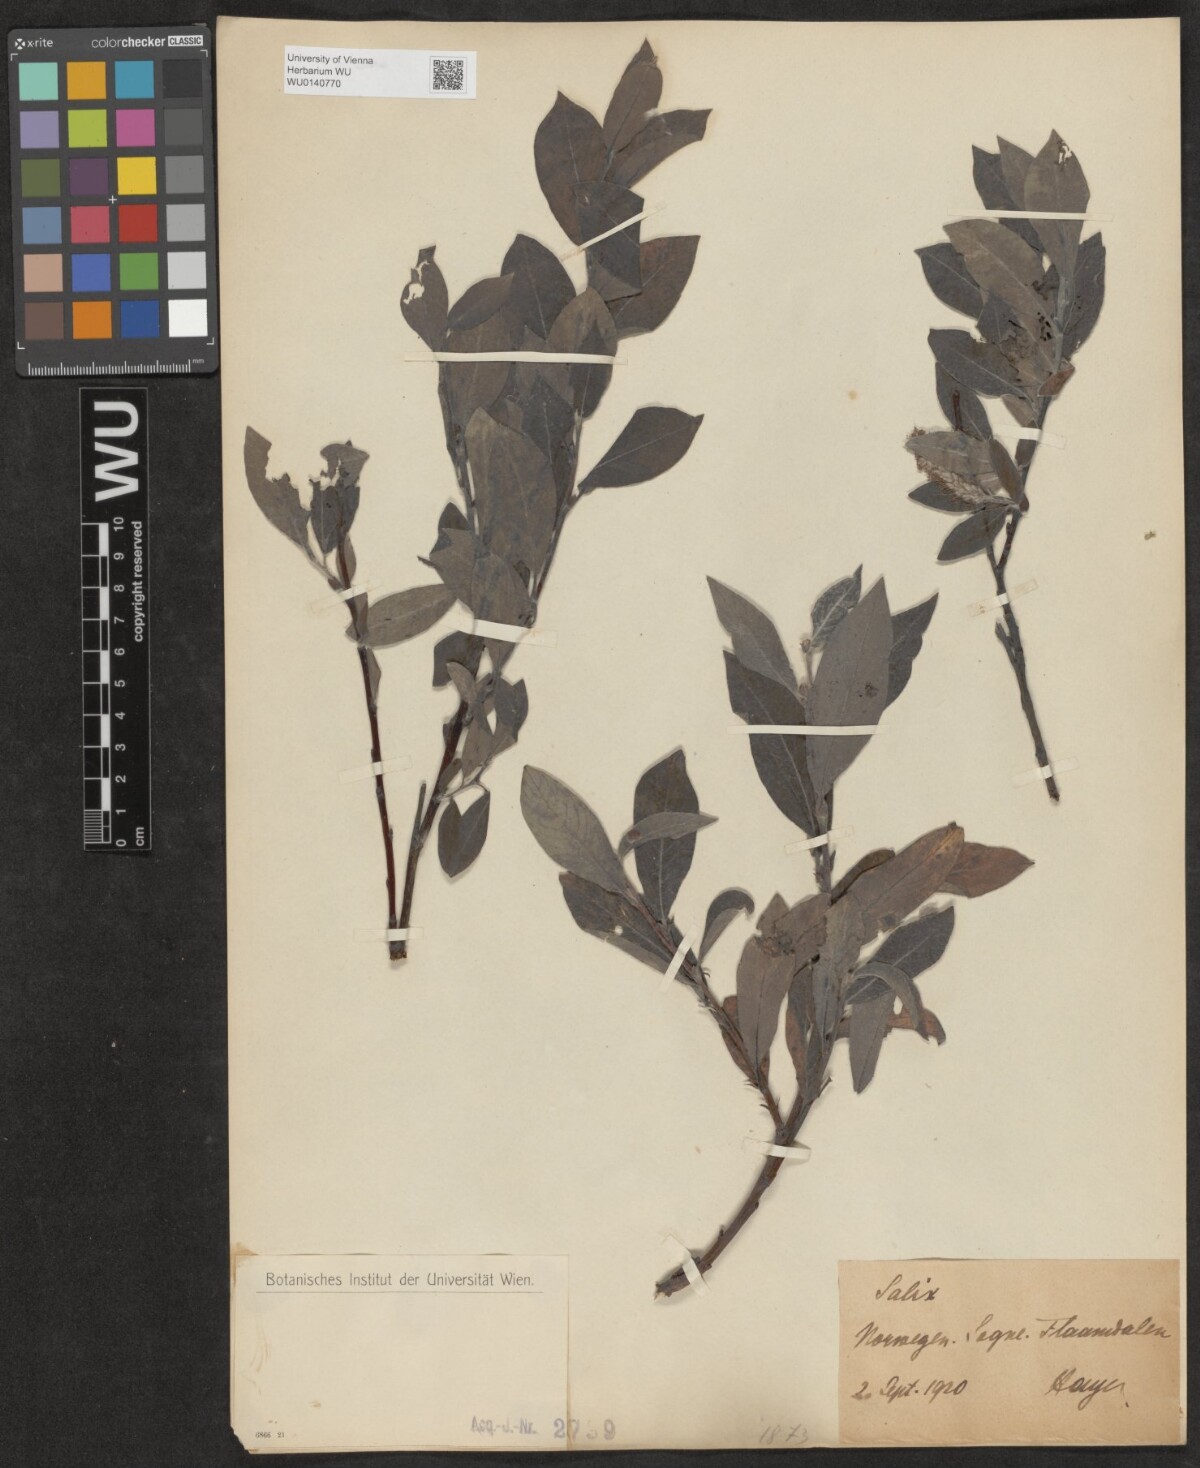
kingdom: Plantae
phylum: Tracheophyta
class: Magnoliopsida
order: Malpighiales
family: Salicaceae
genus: Salix
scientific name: Salix
